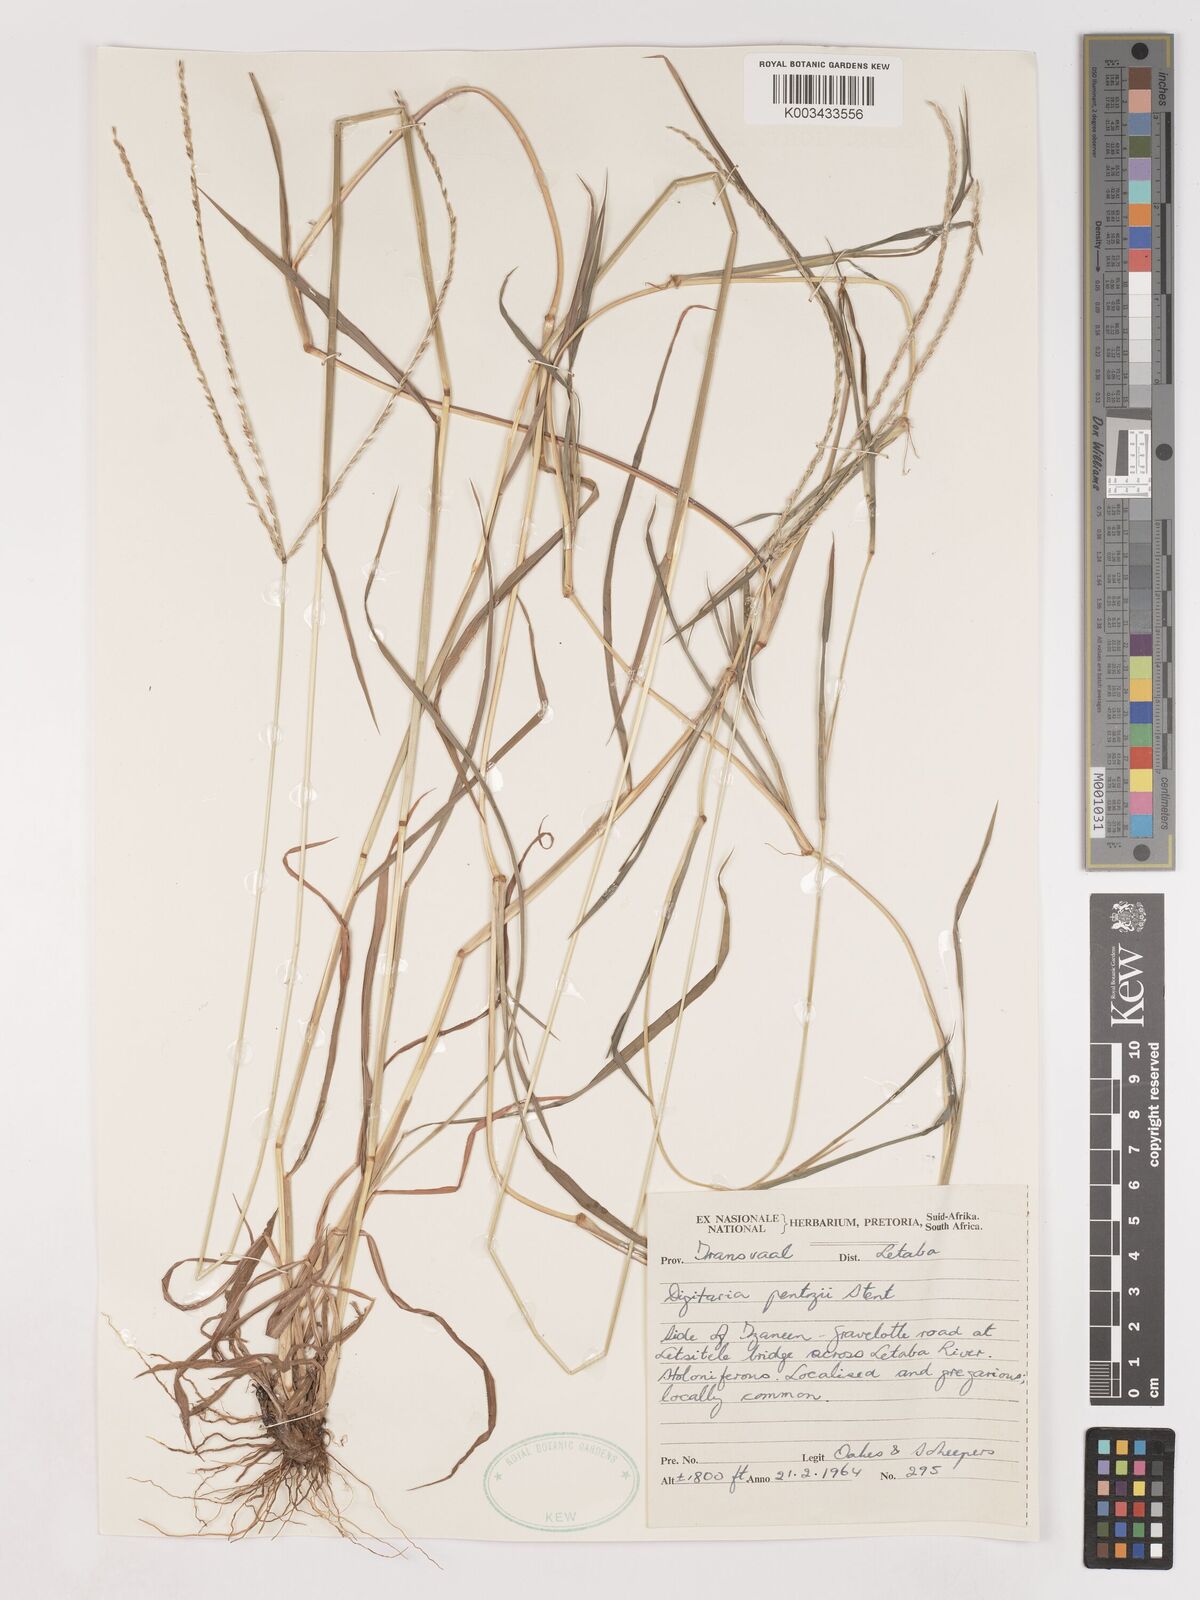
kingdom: Plantae
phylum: Tracheophyta
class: Liliopsida
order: Poales
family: Poaceae
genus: Digitaria
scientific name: Digitaria eriantha
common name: Digitgrass
